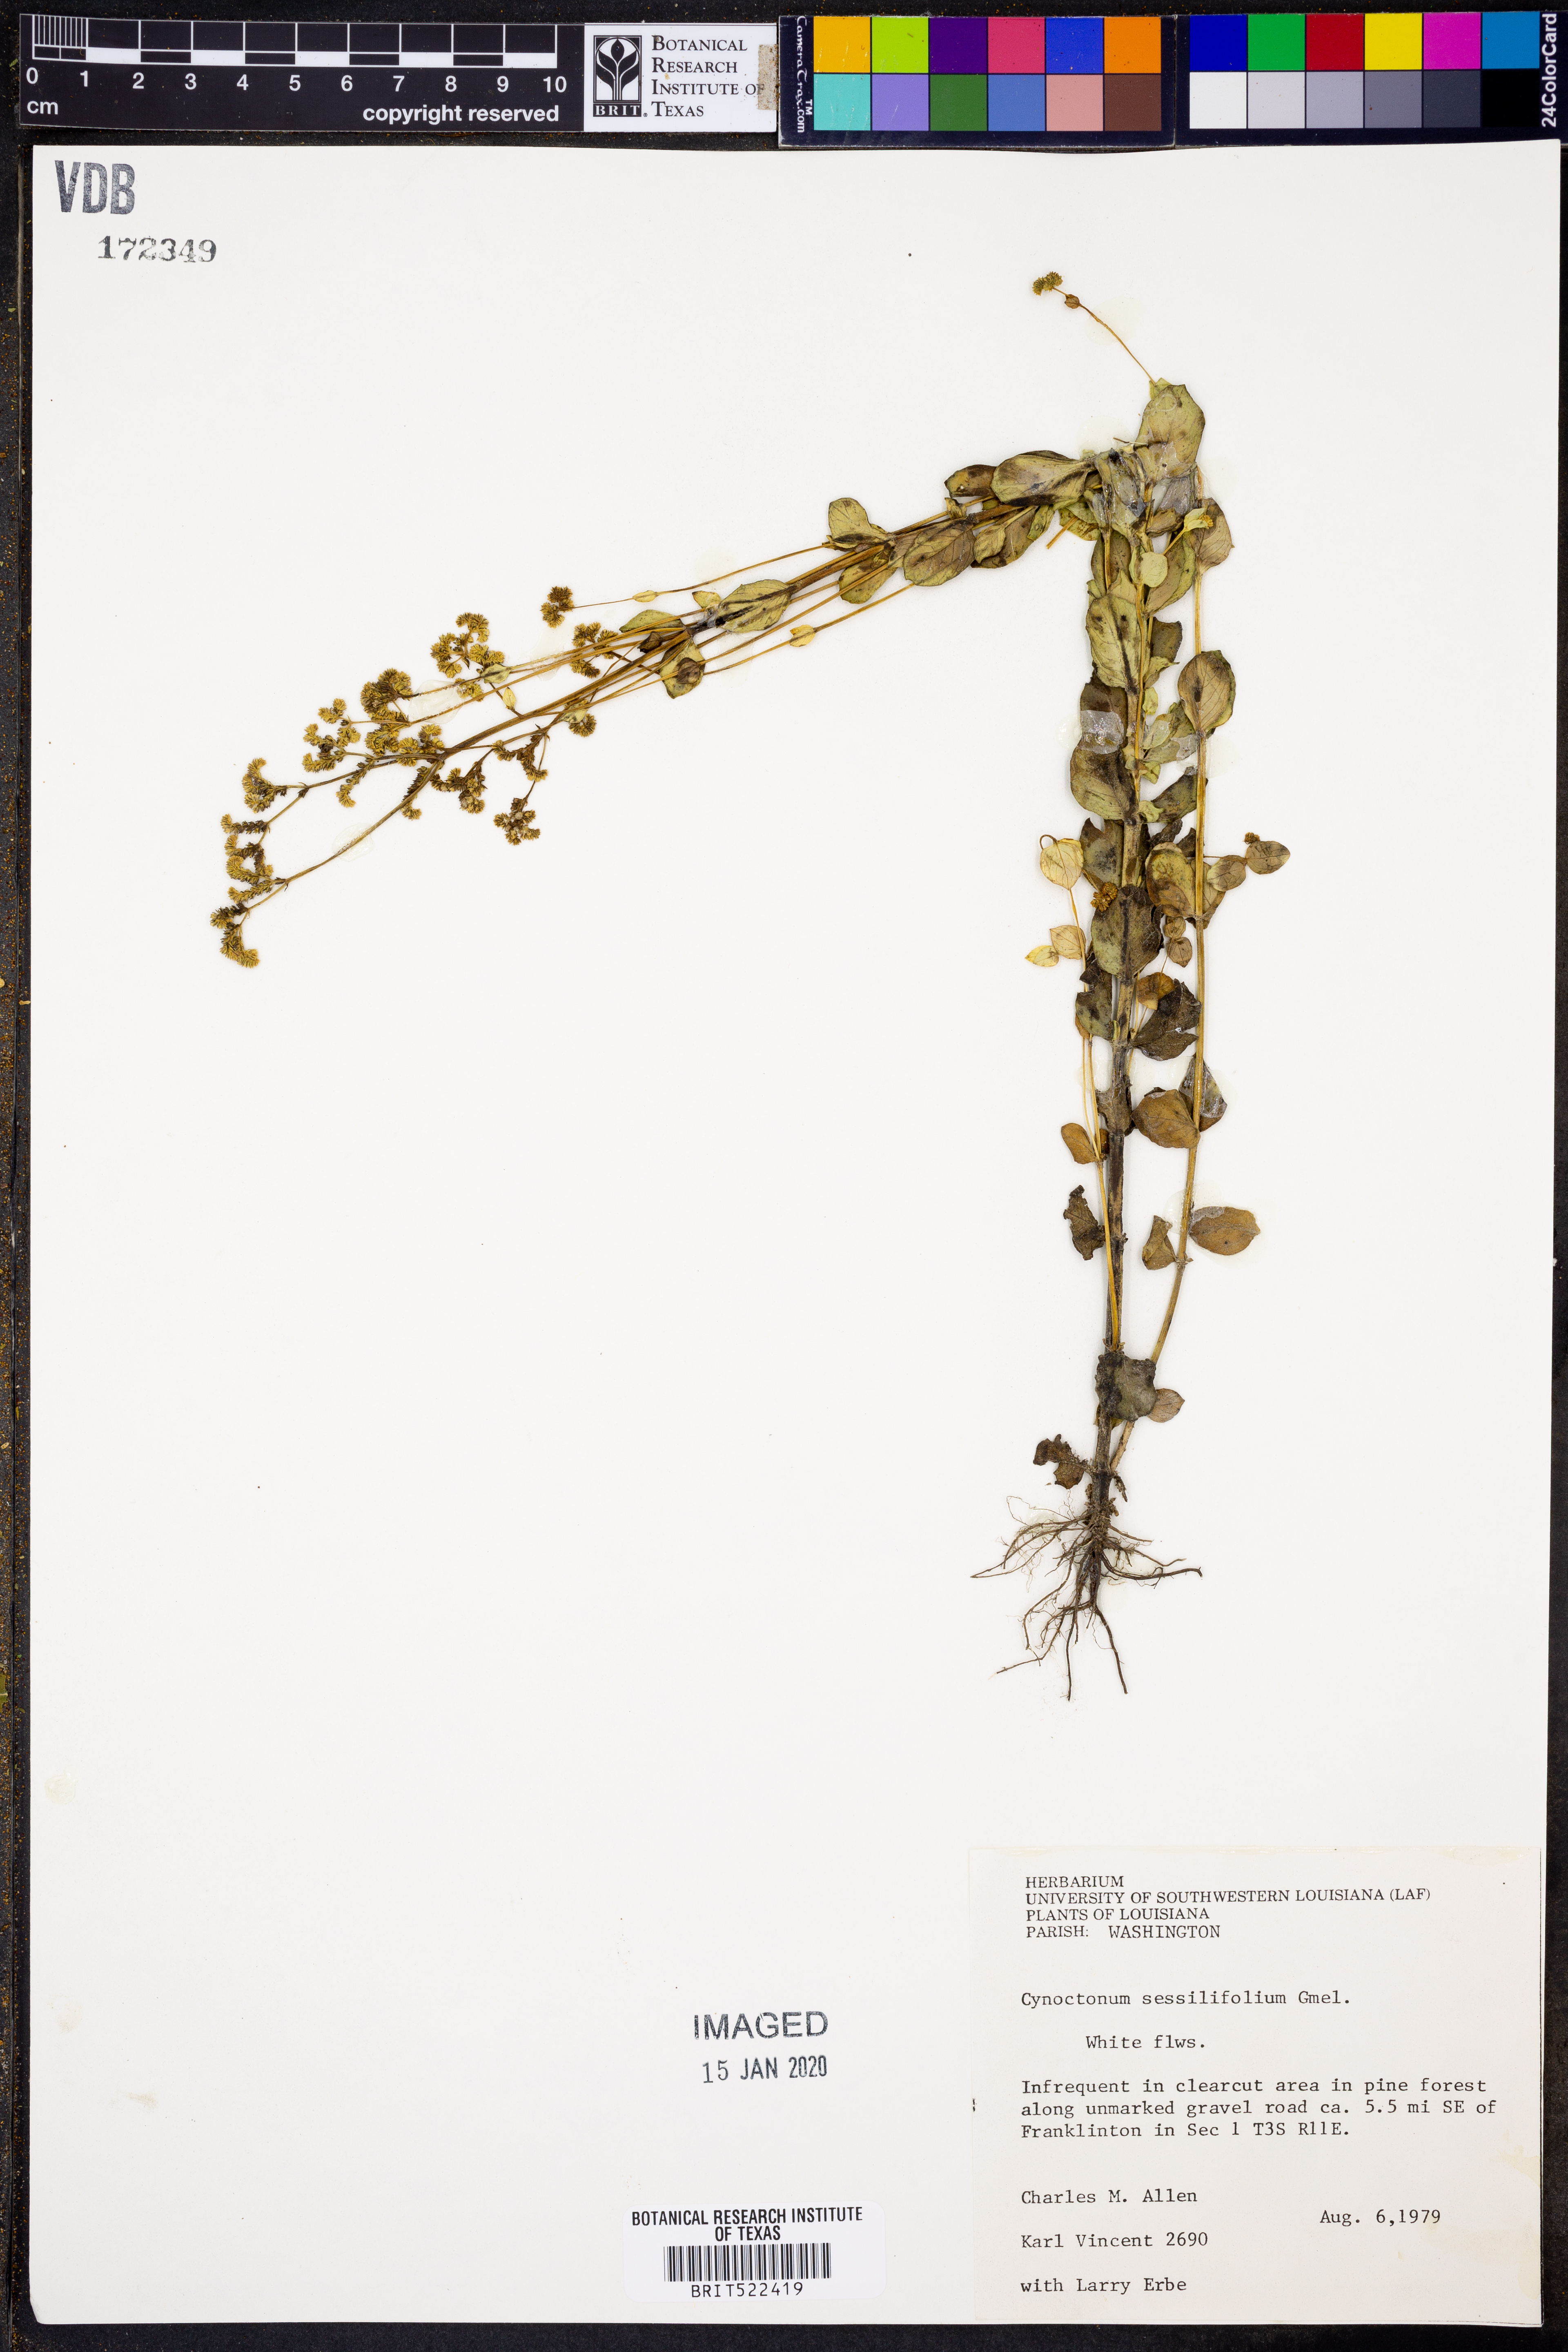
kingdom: Plantae
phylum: Tracheophyta
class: Magnoliopsida
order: Gentianales
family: Loganiaceae
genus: Mitreola
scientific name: Mitreola sessilifolia
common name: Swamp hornpod
